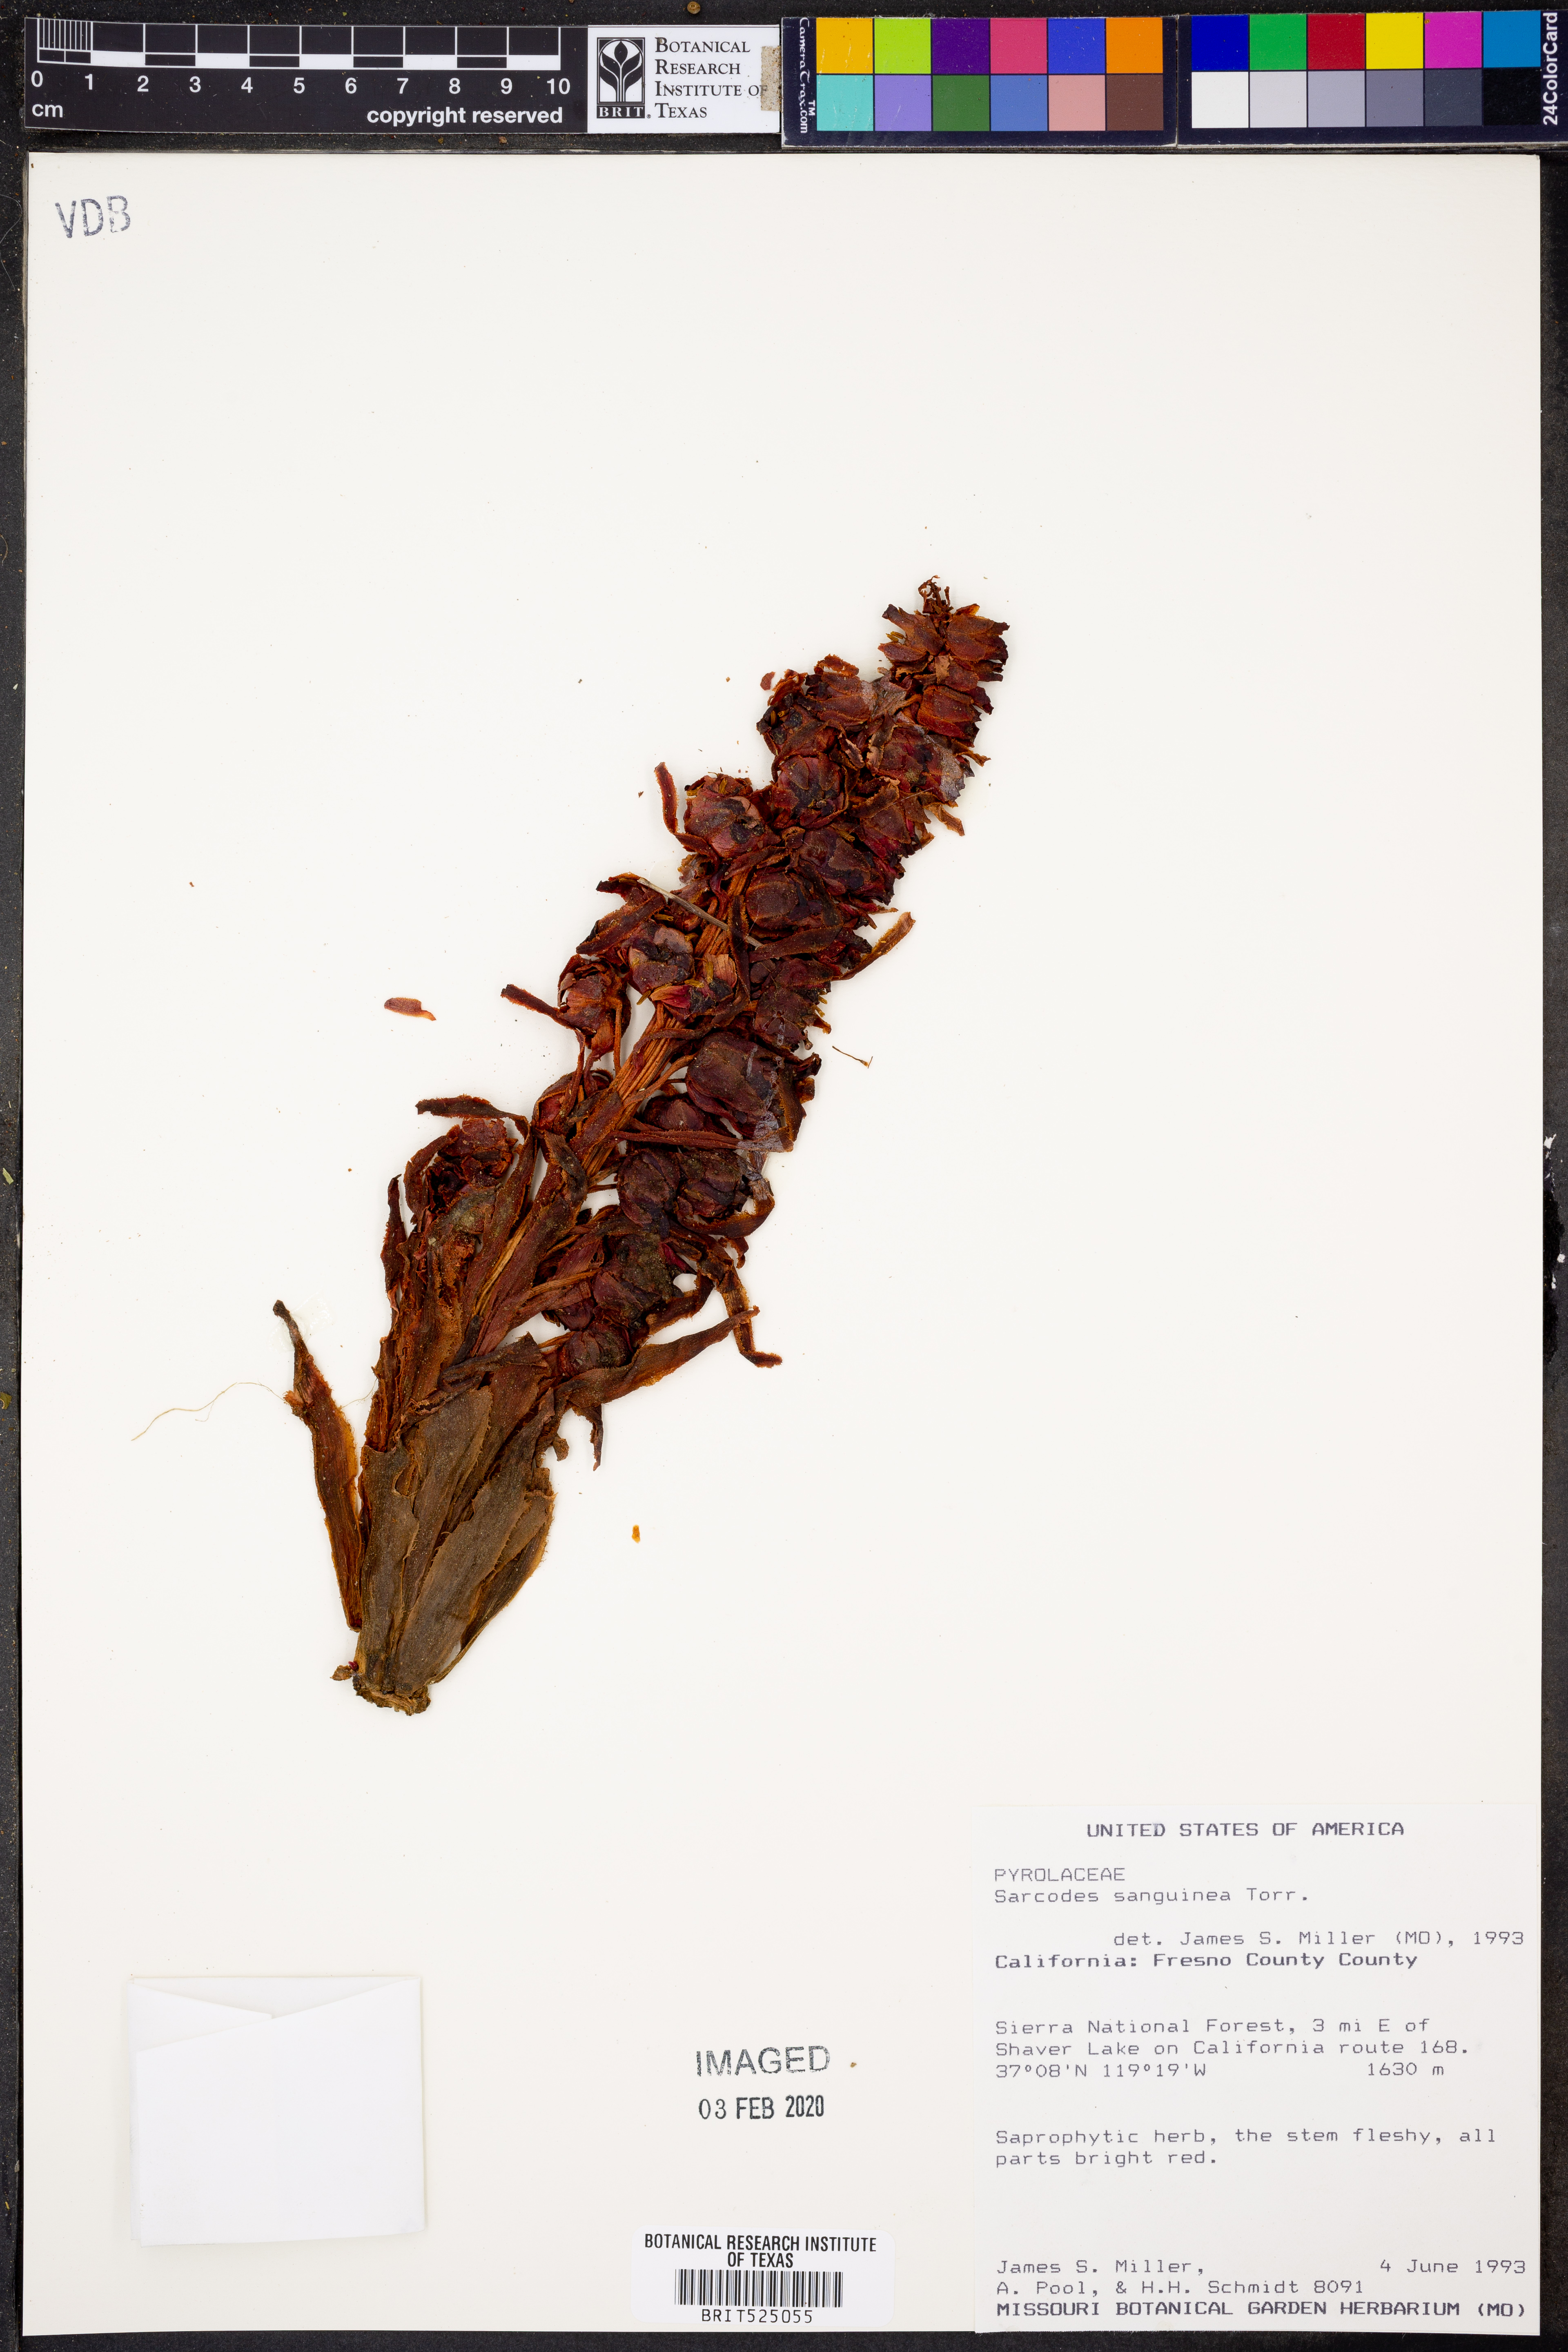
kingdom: Plantae
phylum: Tracheophyta
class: Magnoliopsida
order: Ericales
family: Ericaceae
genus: Sarcodes
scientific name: Sarcodes sanguinea
